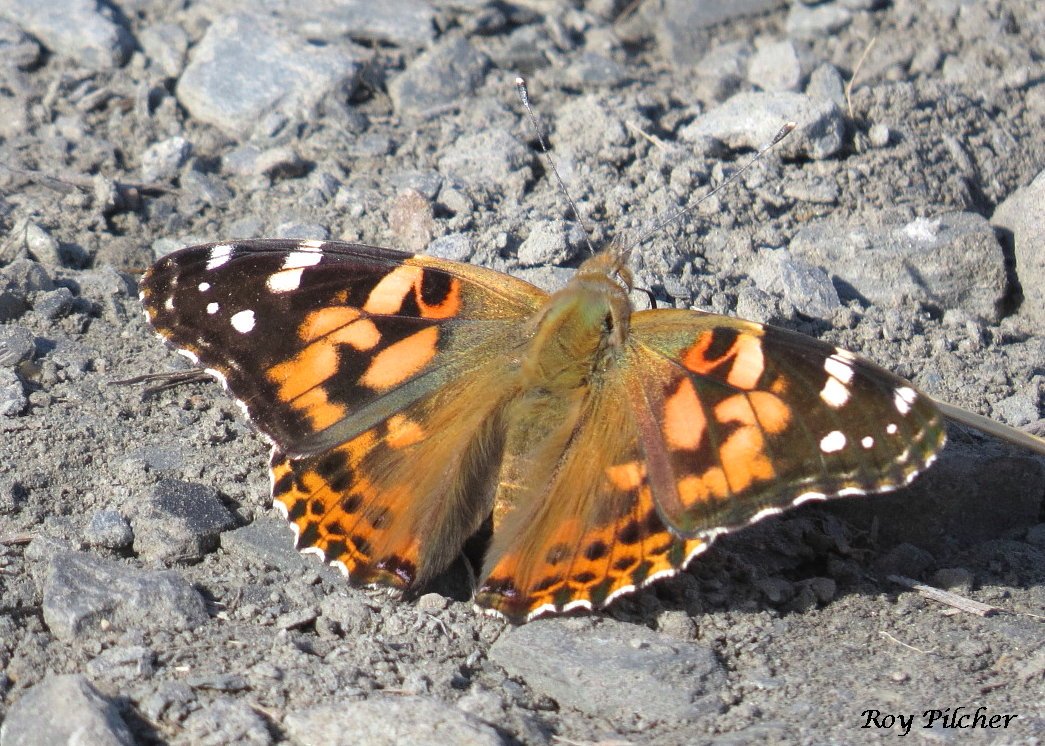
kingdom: Animalia
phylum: Arthropoda
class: Insecta
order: Lepidoptera
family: Nymphalidae
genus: Vanessa
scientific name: Vanessa cardui
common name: Painted Lady
